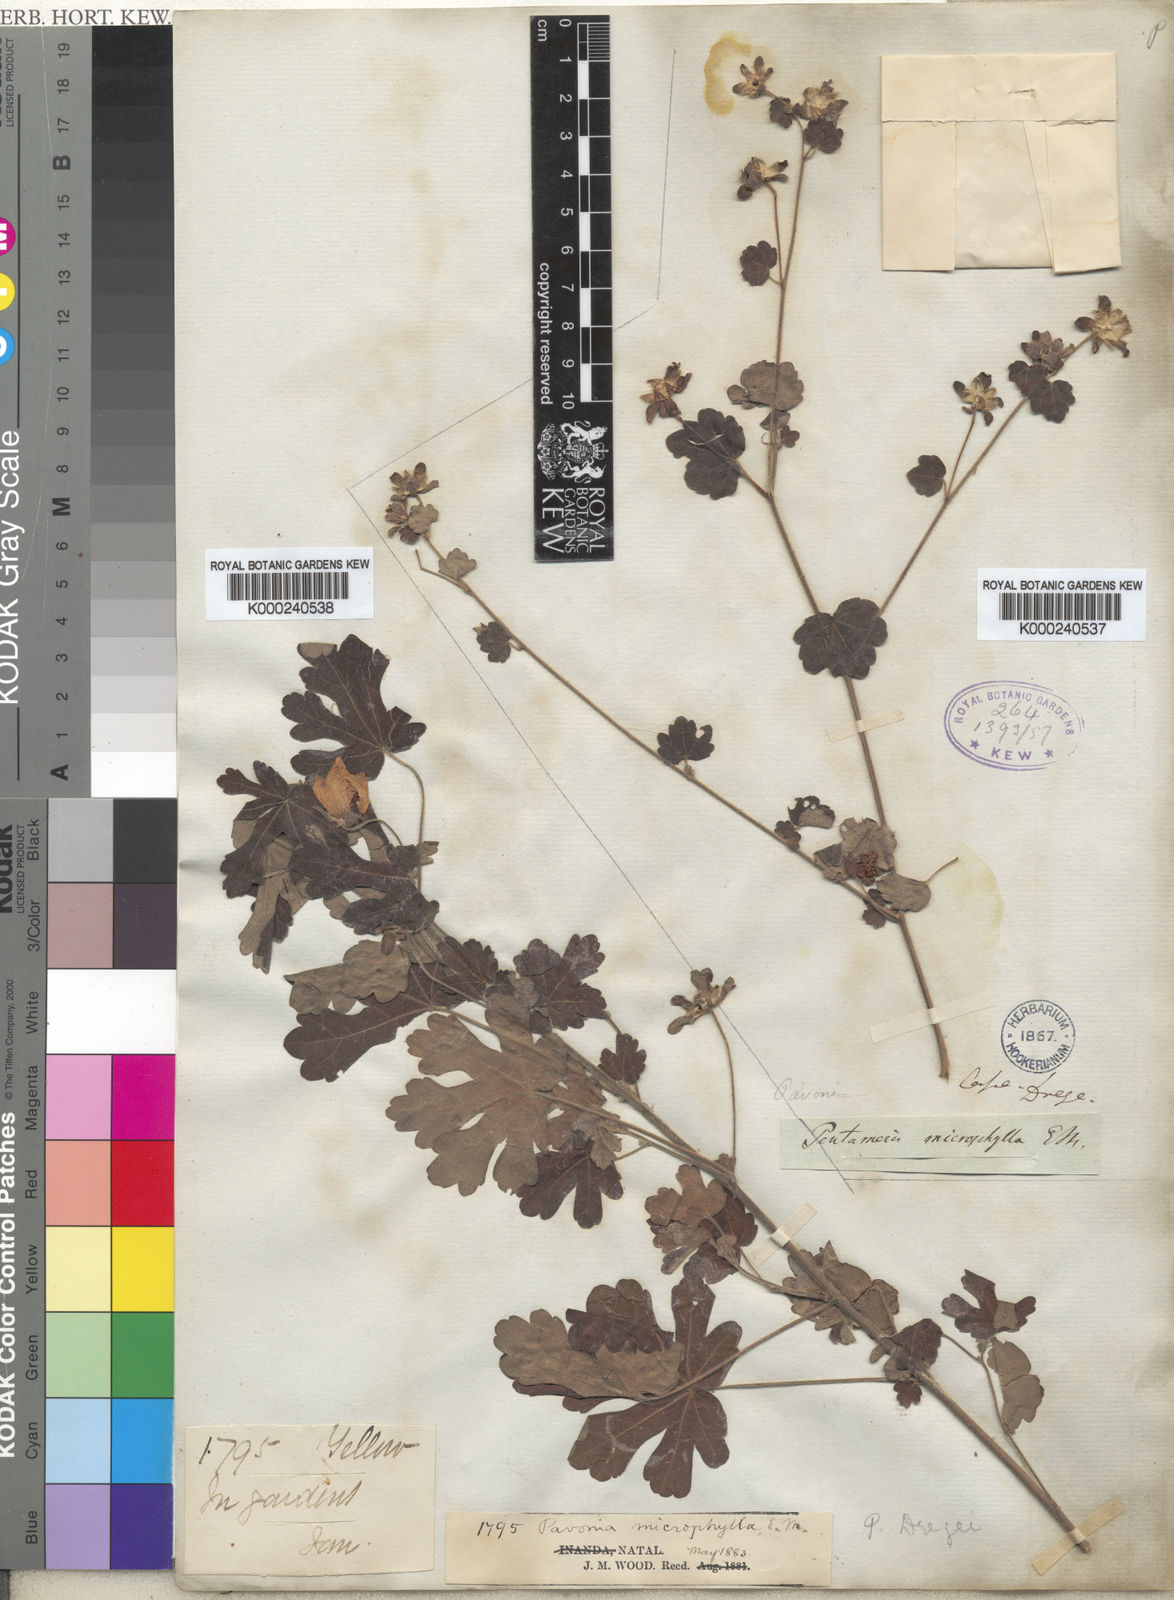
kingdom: Plantae
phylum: Tracheophyta
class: Magnoliopsida
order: Malvales
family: Malvaceae
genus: Pavonia
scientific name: Pavonia dregei
